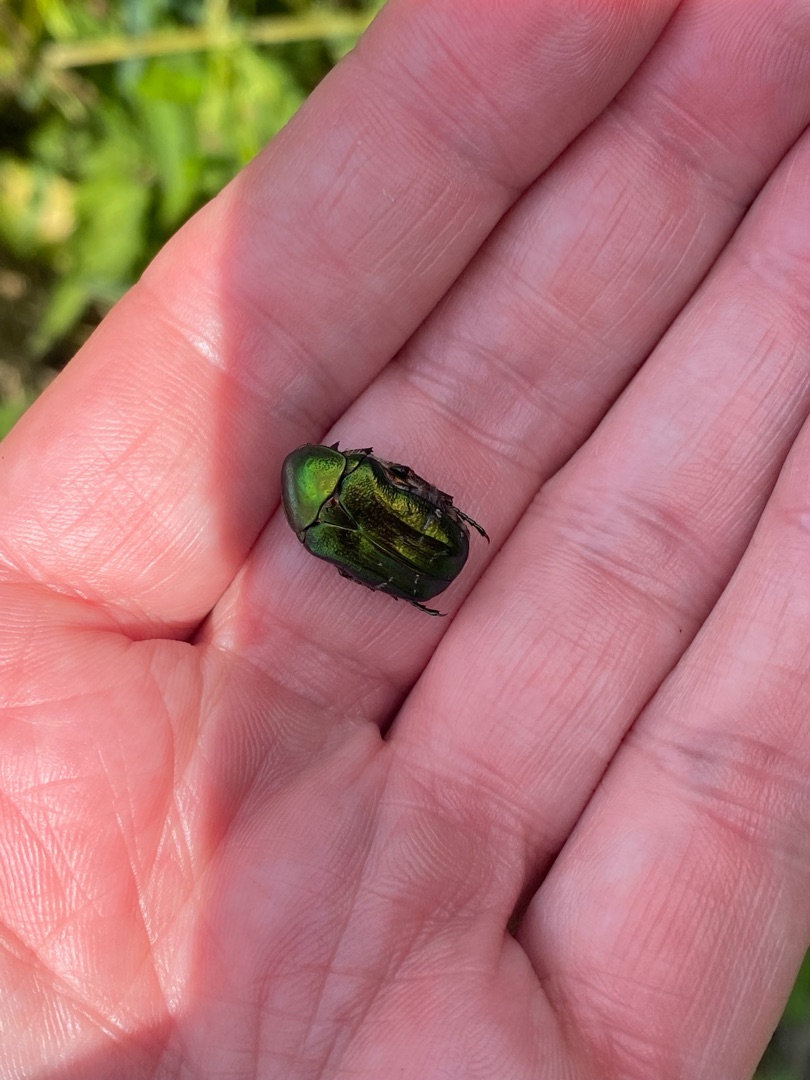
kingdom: Animalia
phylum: Arthropoda
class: Insecta
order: Coleoptera
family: Scarabaeidae
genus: Cetonia
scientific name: Cetonia aurata
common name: Grøn guldbasse
